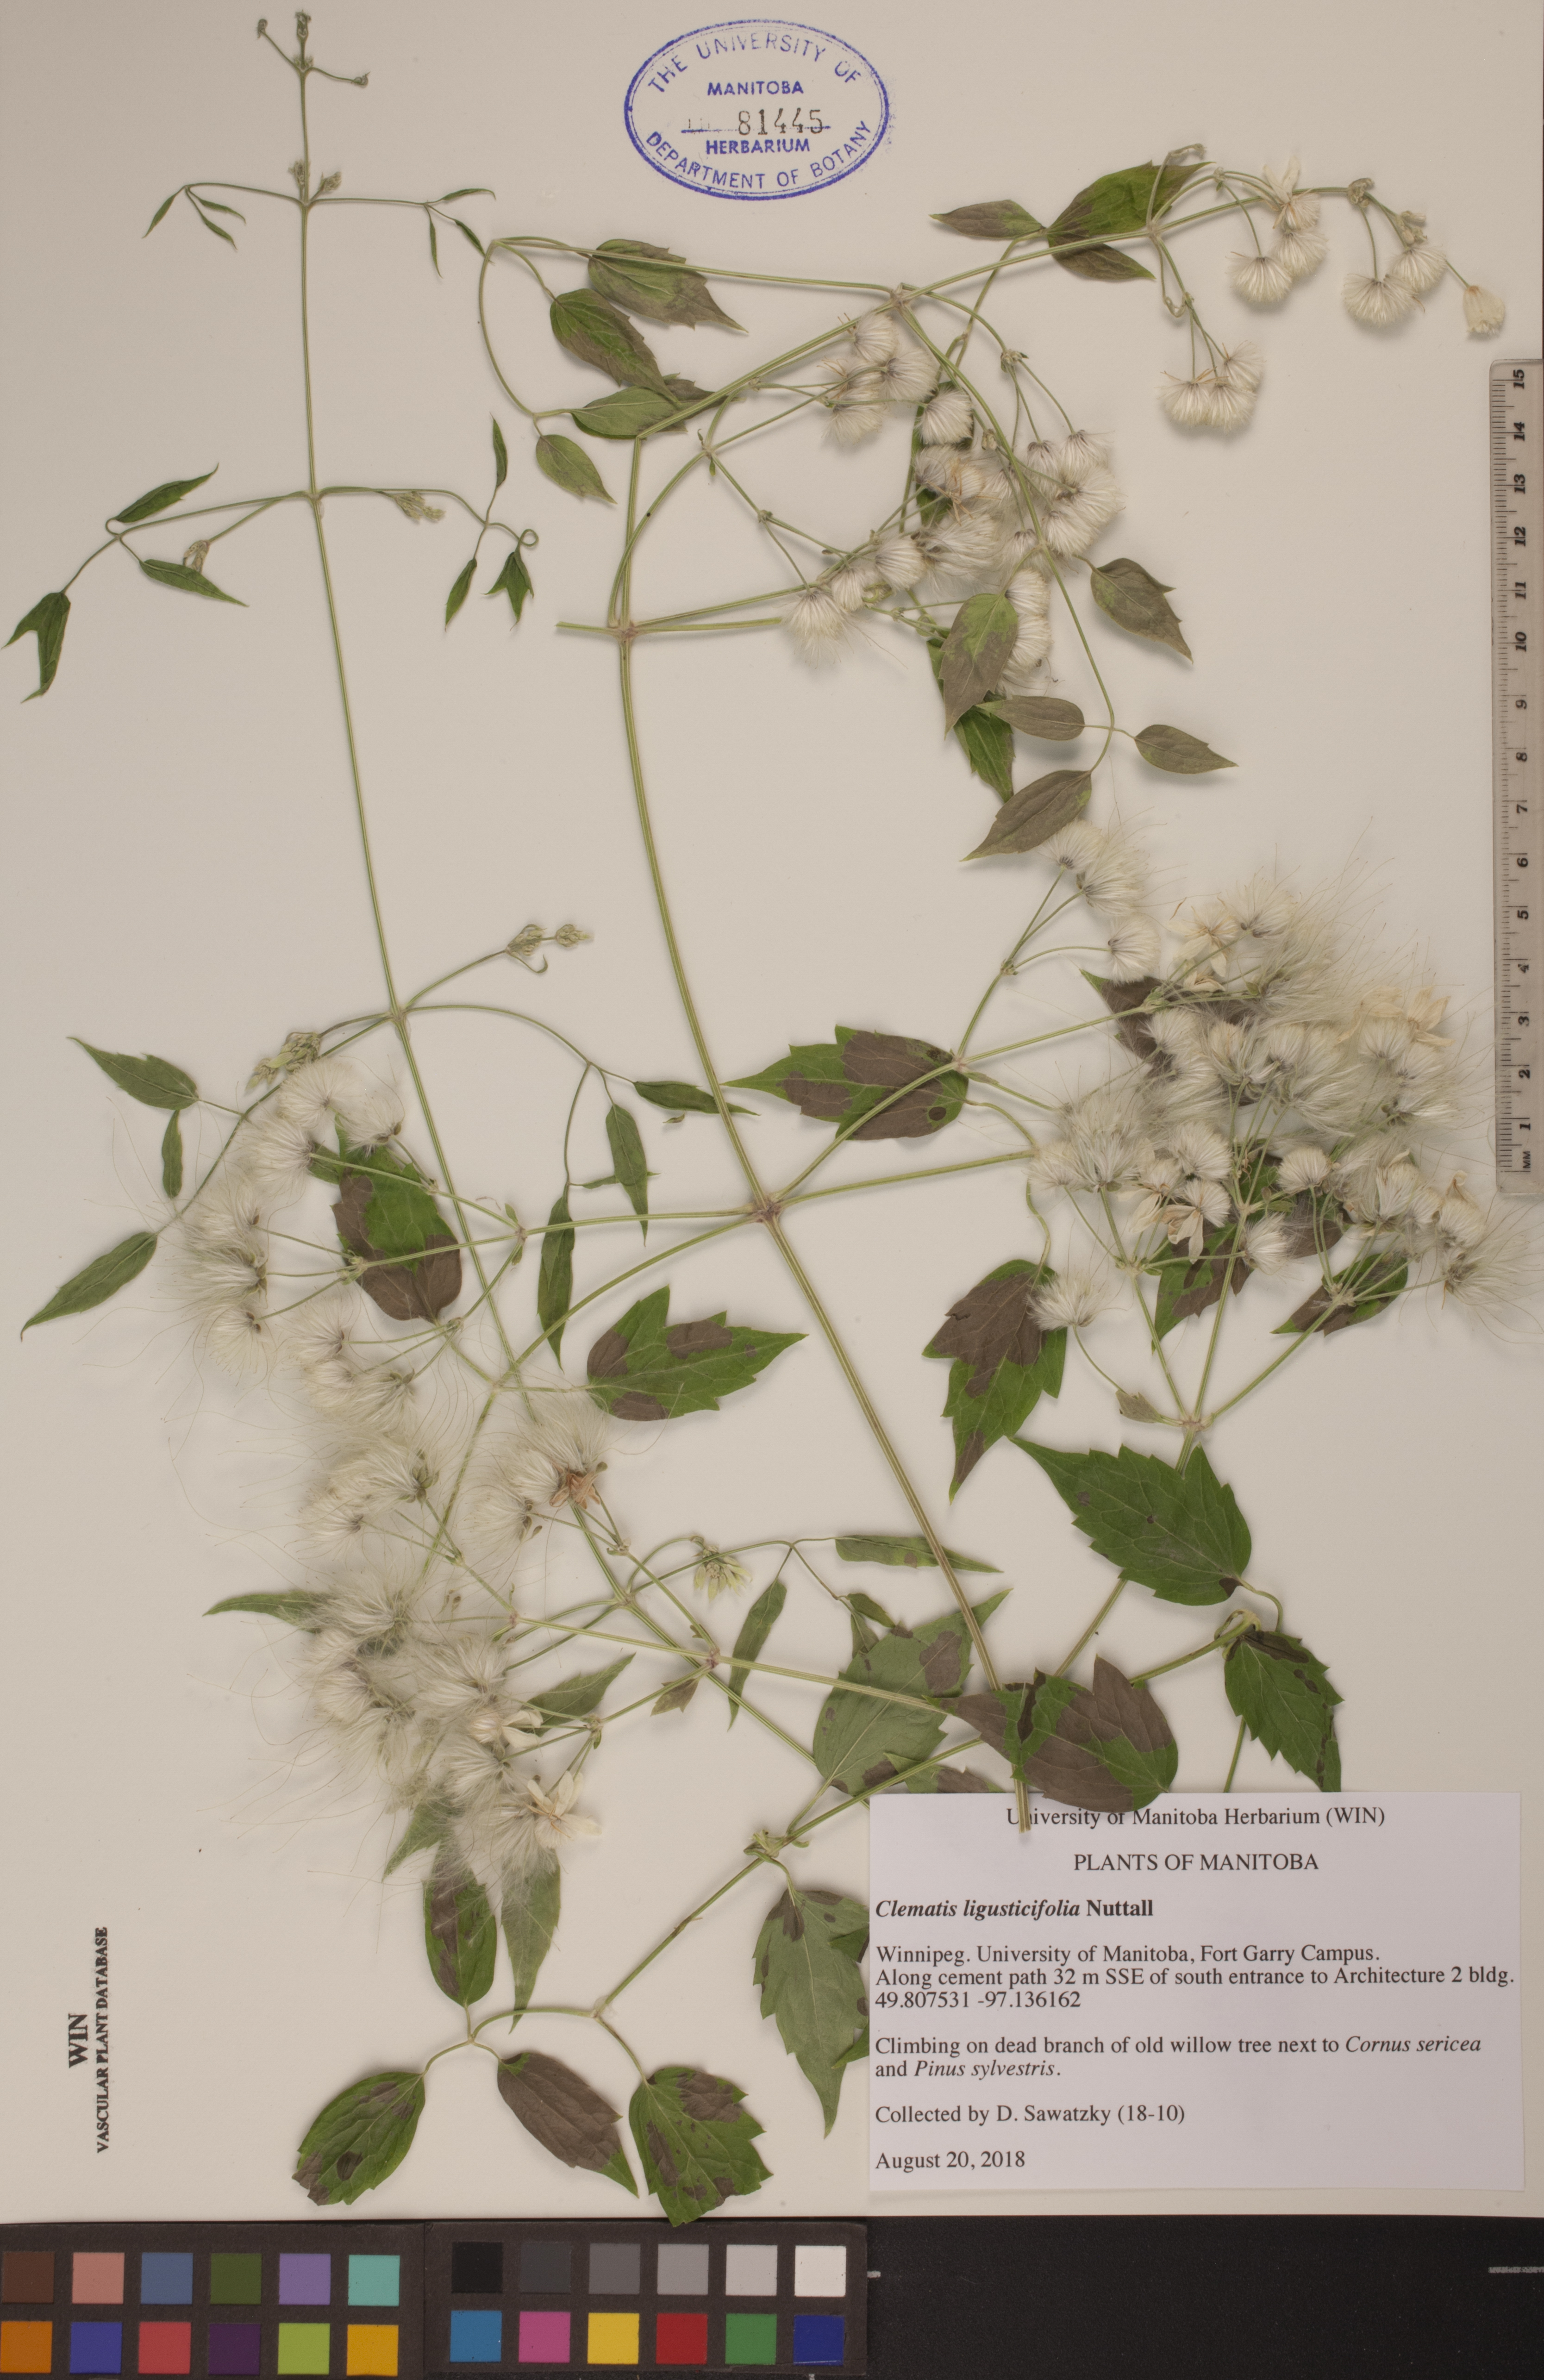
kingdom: Plantae
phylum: Tracheophyta
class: Magnoliopsida
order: Ranunculales
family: Ranunculaceae
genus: Clematis
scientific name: Clematis ligusticifolia
